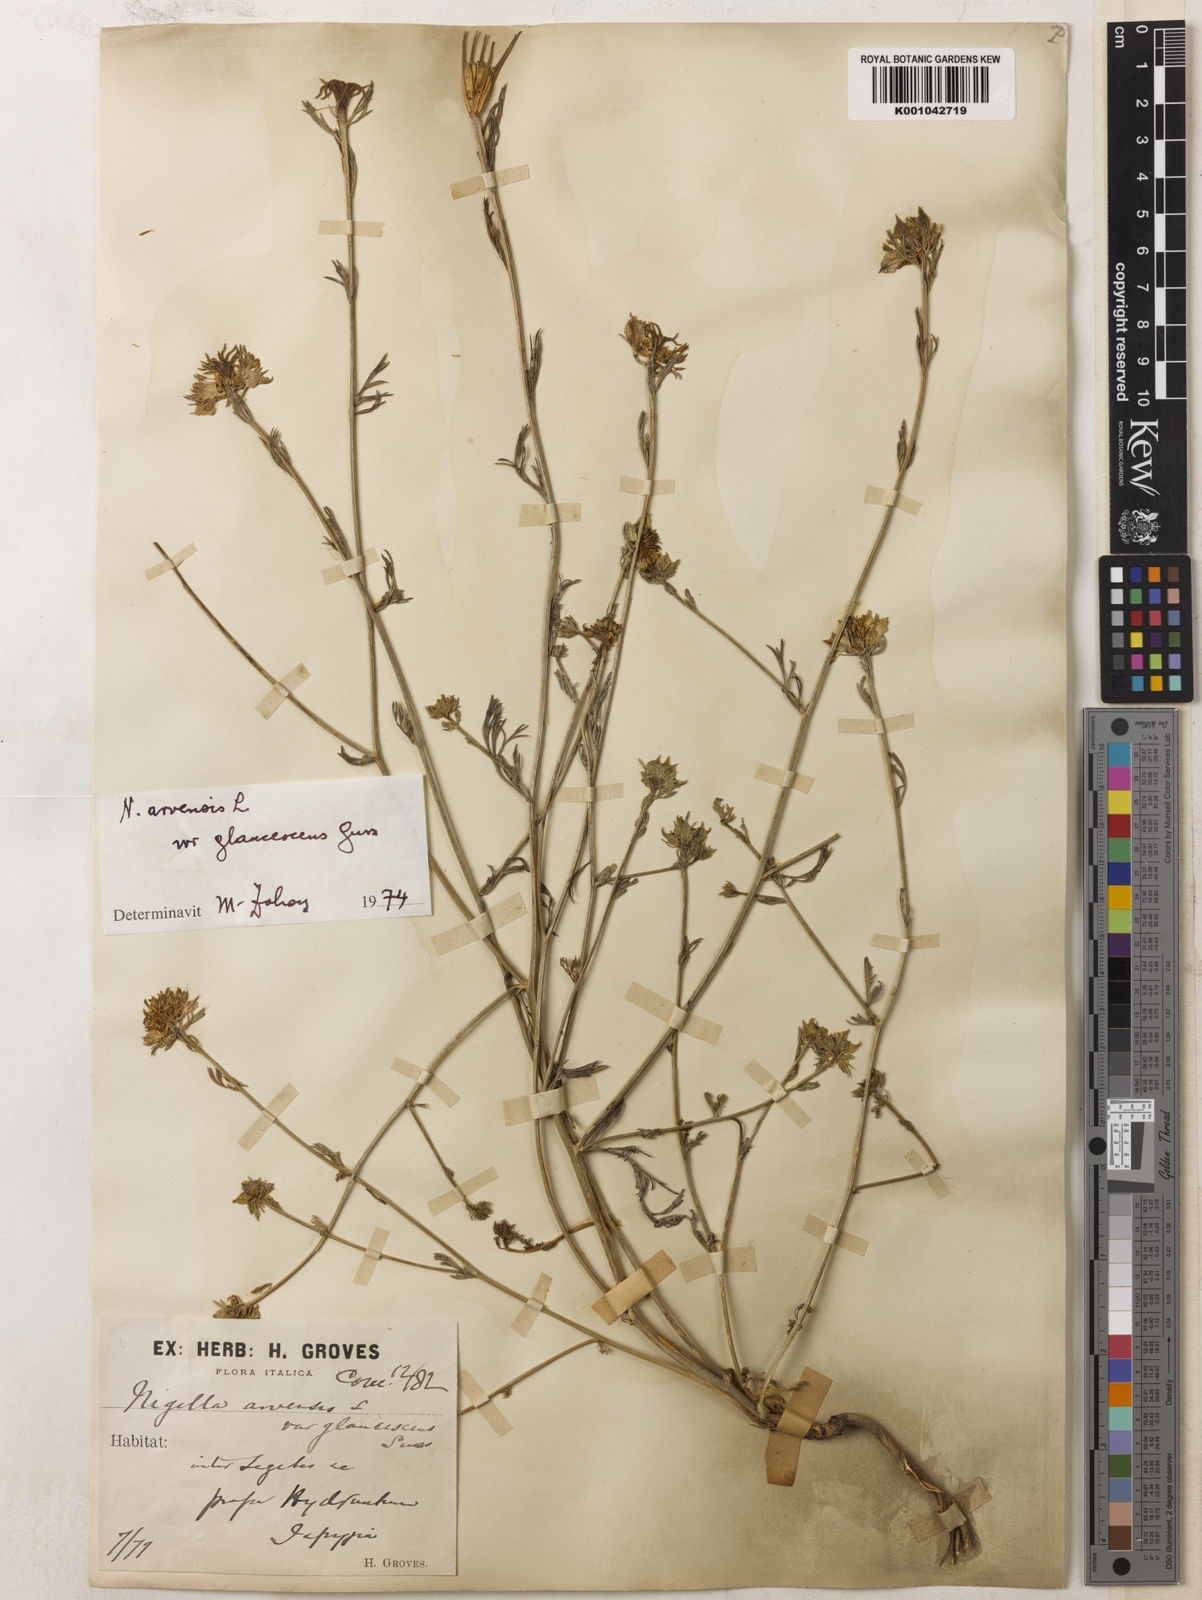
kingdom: Plantae
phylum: Tracheophyta
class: Magnoliopsida
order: Ranunculales
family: Ranunculaceae
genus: Nigella
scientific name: Nigella arvensis
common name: Wild fennel-flower
